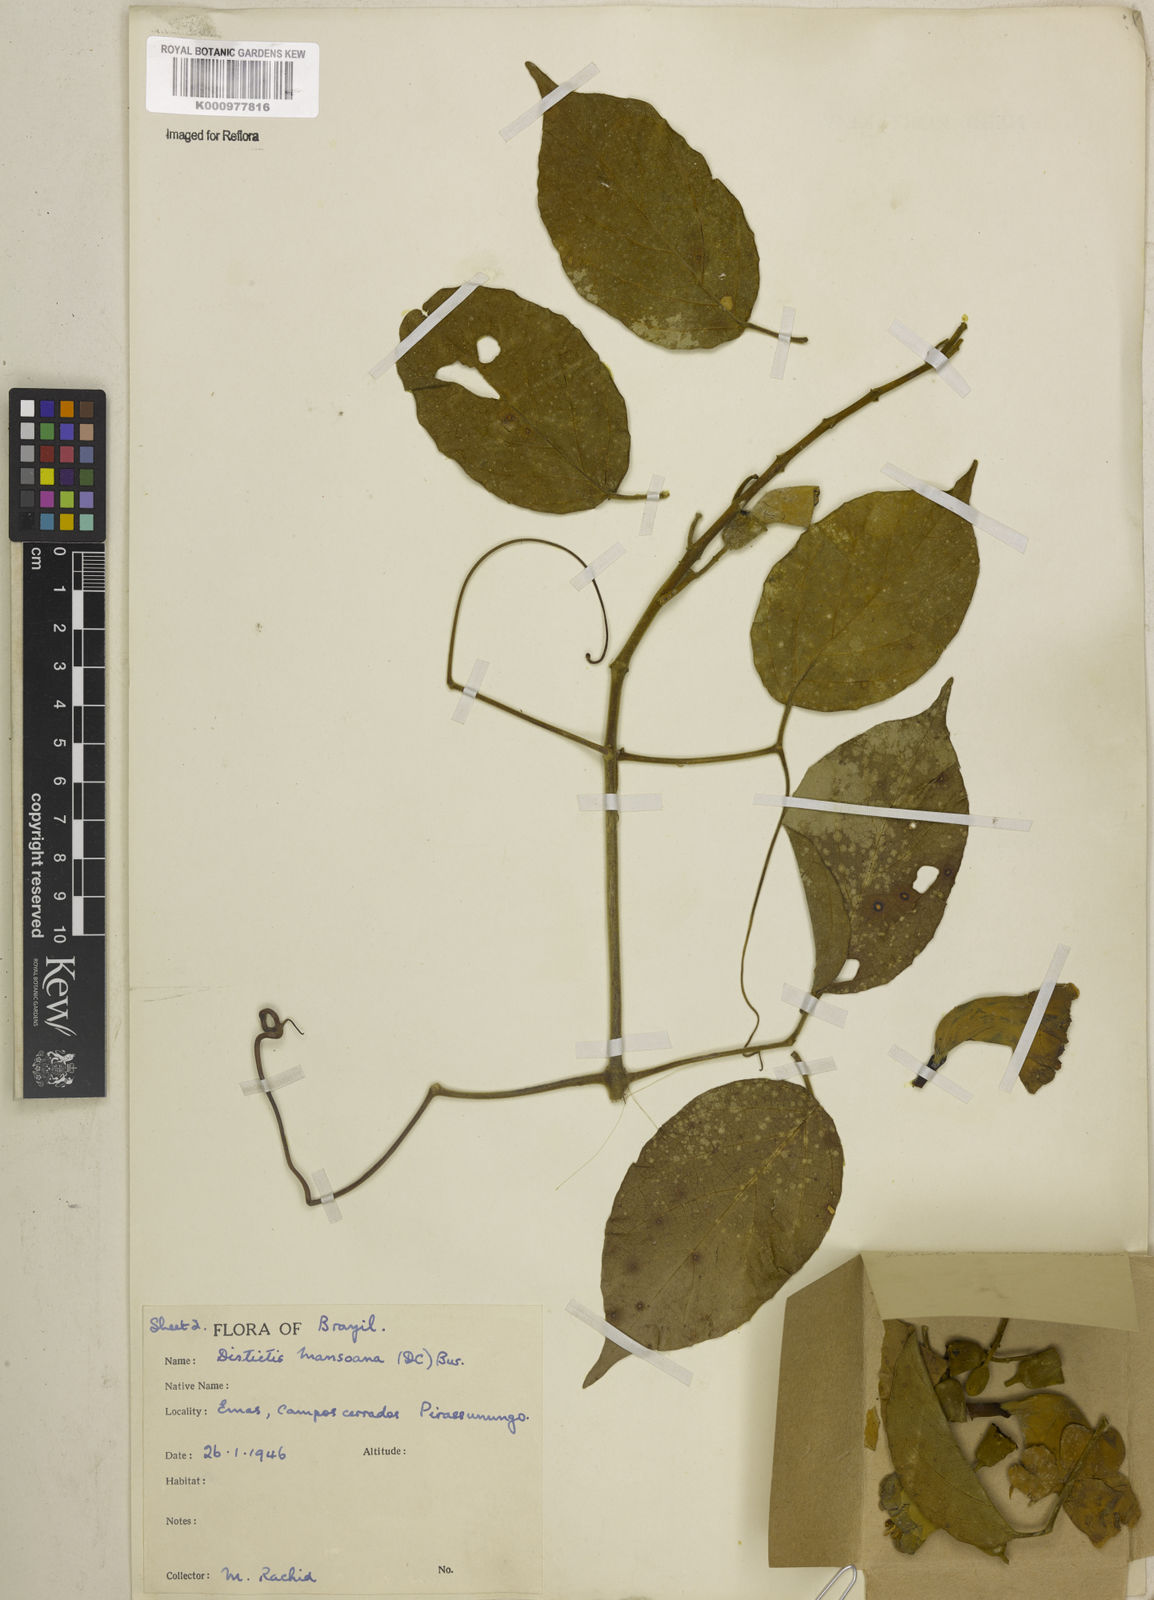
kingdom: Plantae
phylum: Tracheophyta
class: Magnoliopsida
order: Lamiales
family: Bignoniaceae
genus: Amphilophium
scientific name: Amphilophium mansoanum
